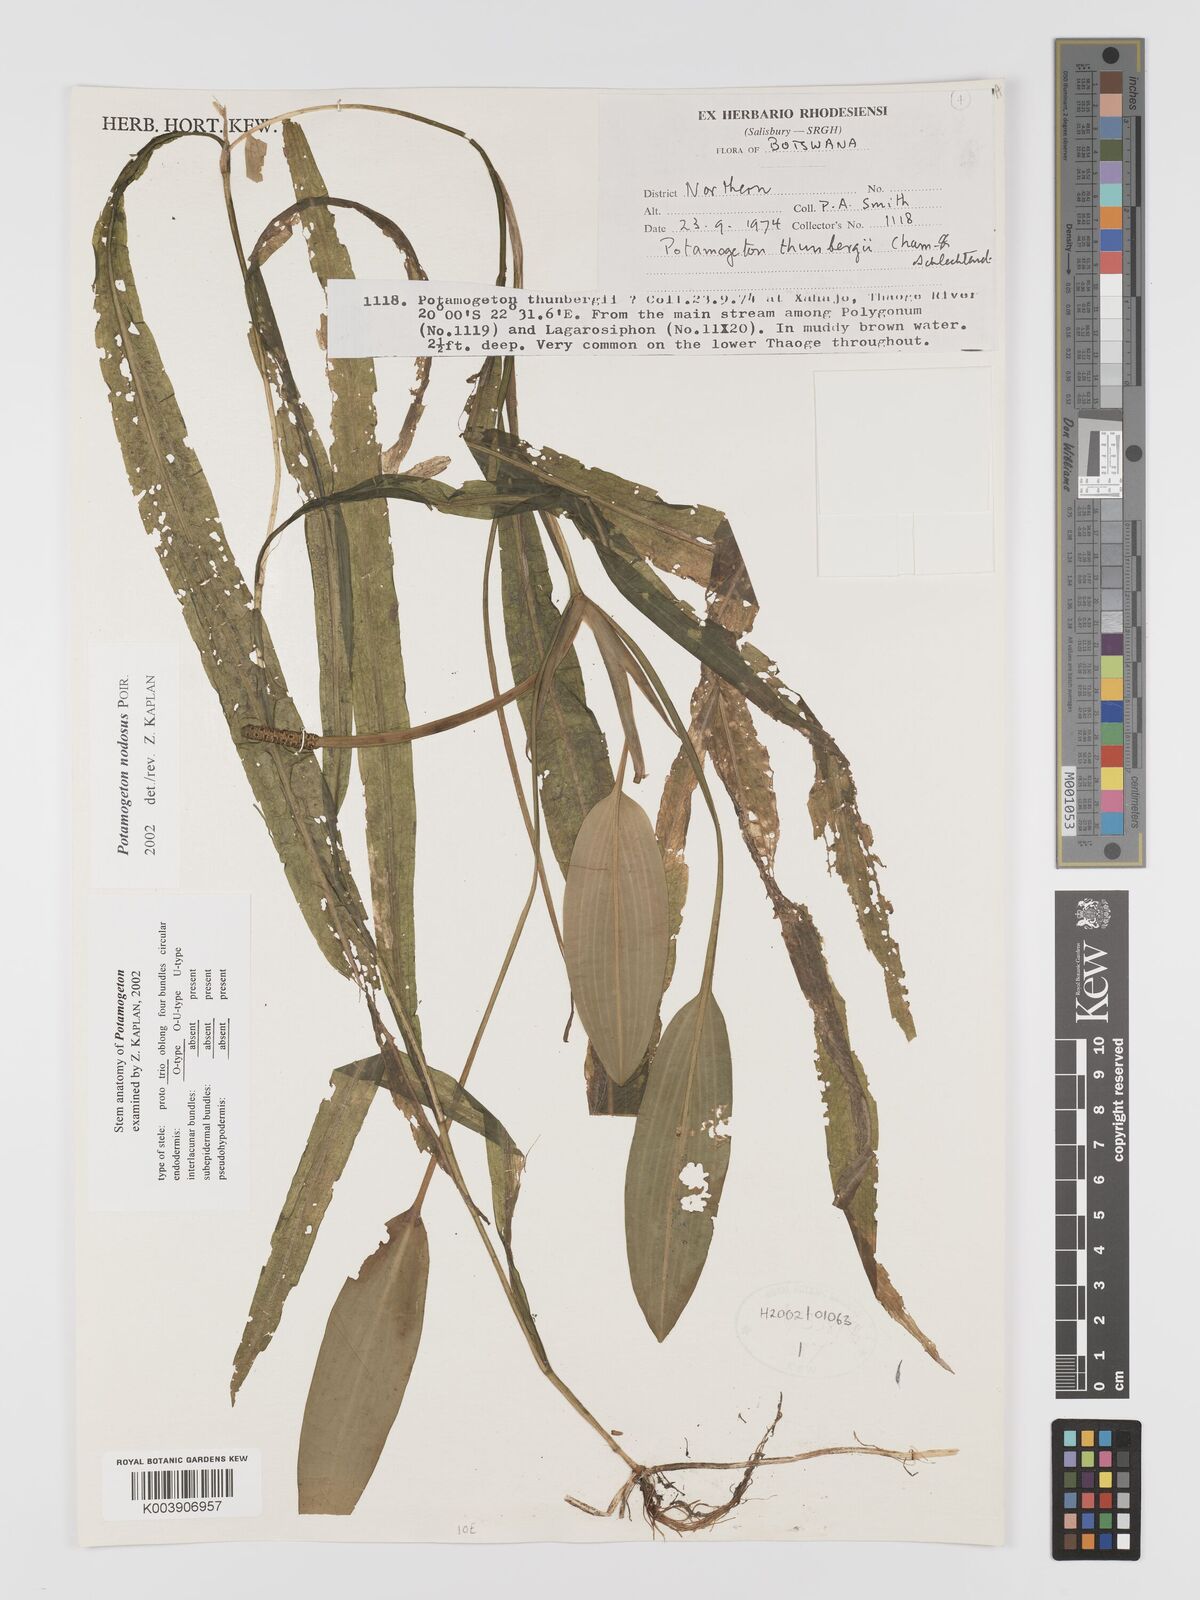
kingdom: Plantae
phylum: Tracheophyta
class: Liliopsida
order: Alismatales
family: Potamogetonaceae
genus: Potamogeton
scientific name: Potamogeton nodosus
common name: Loddon pondweed
